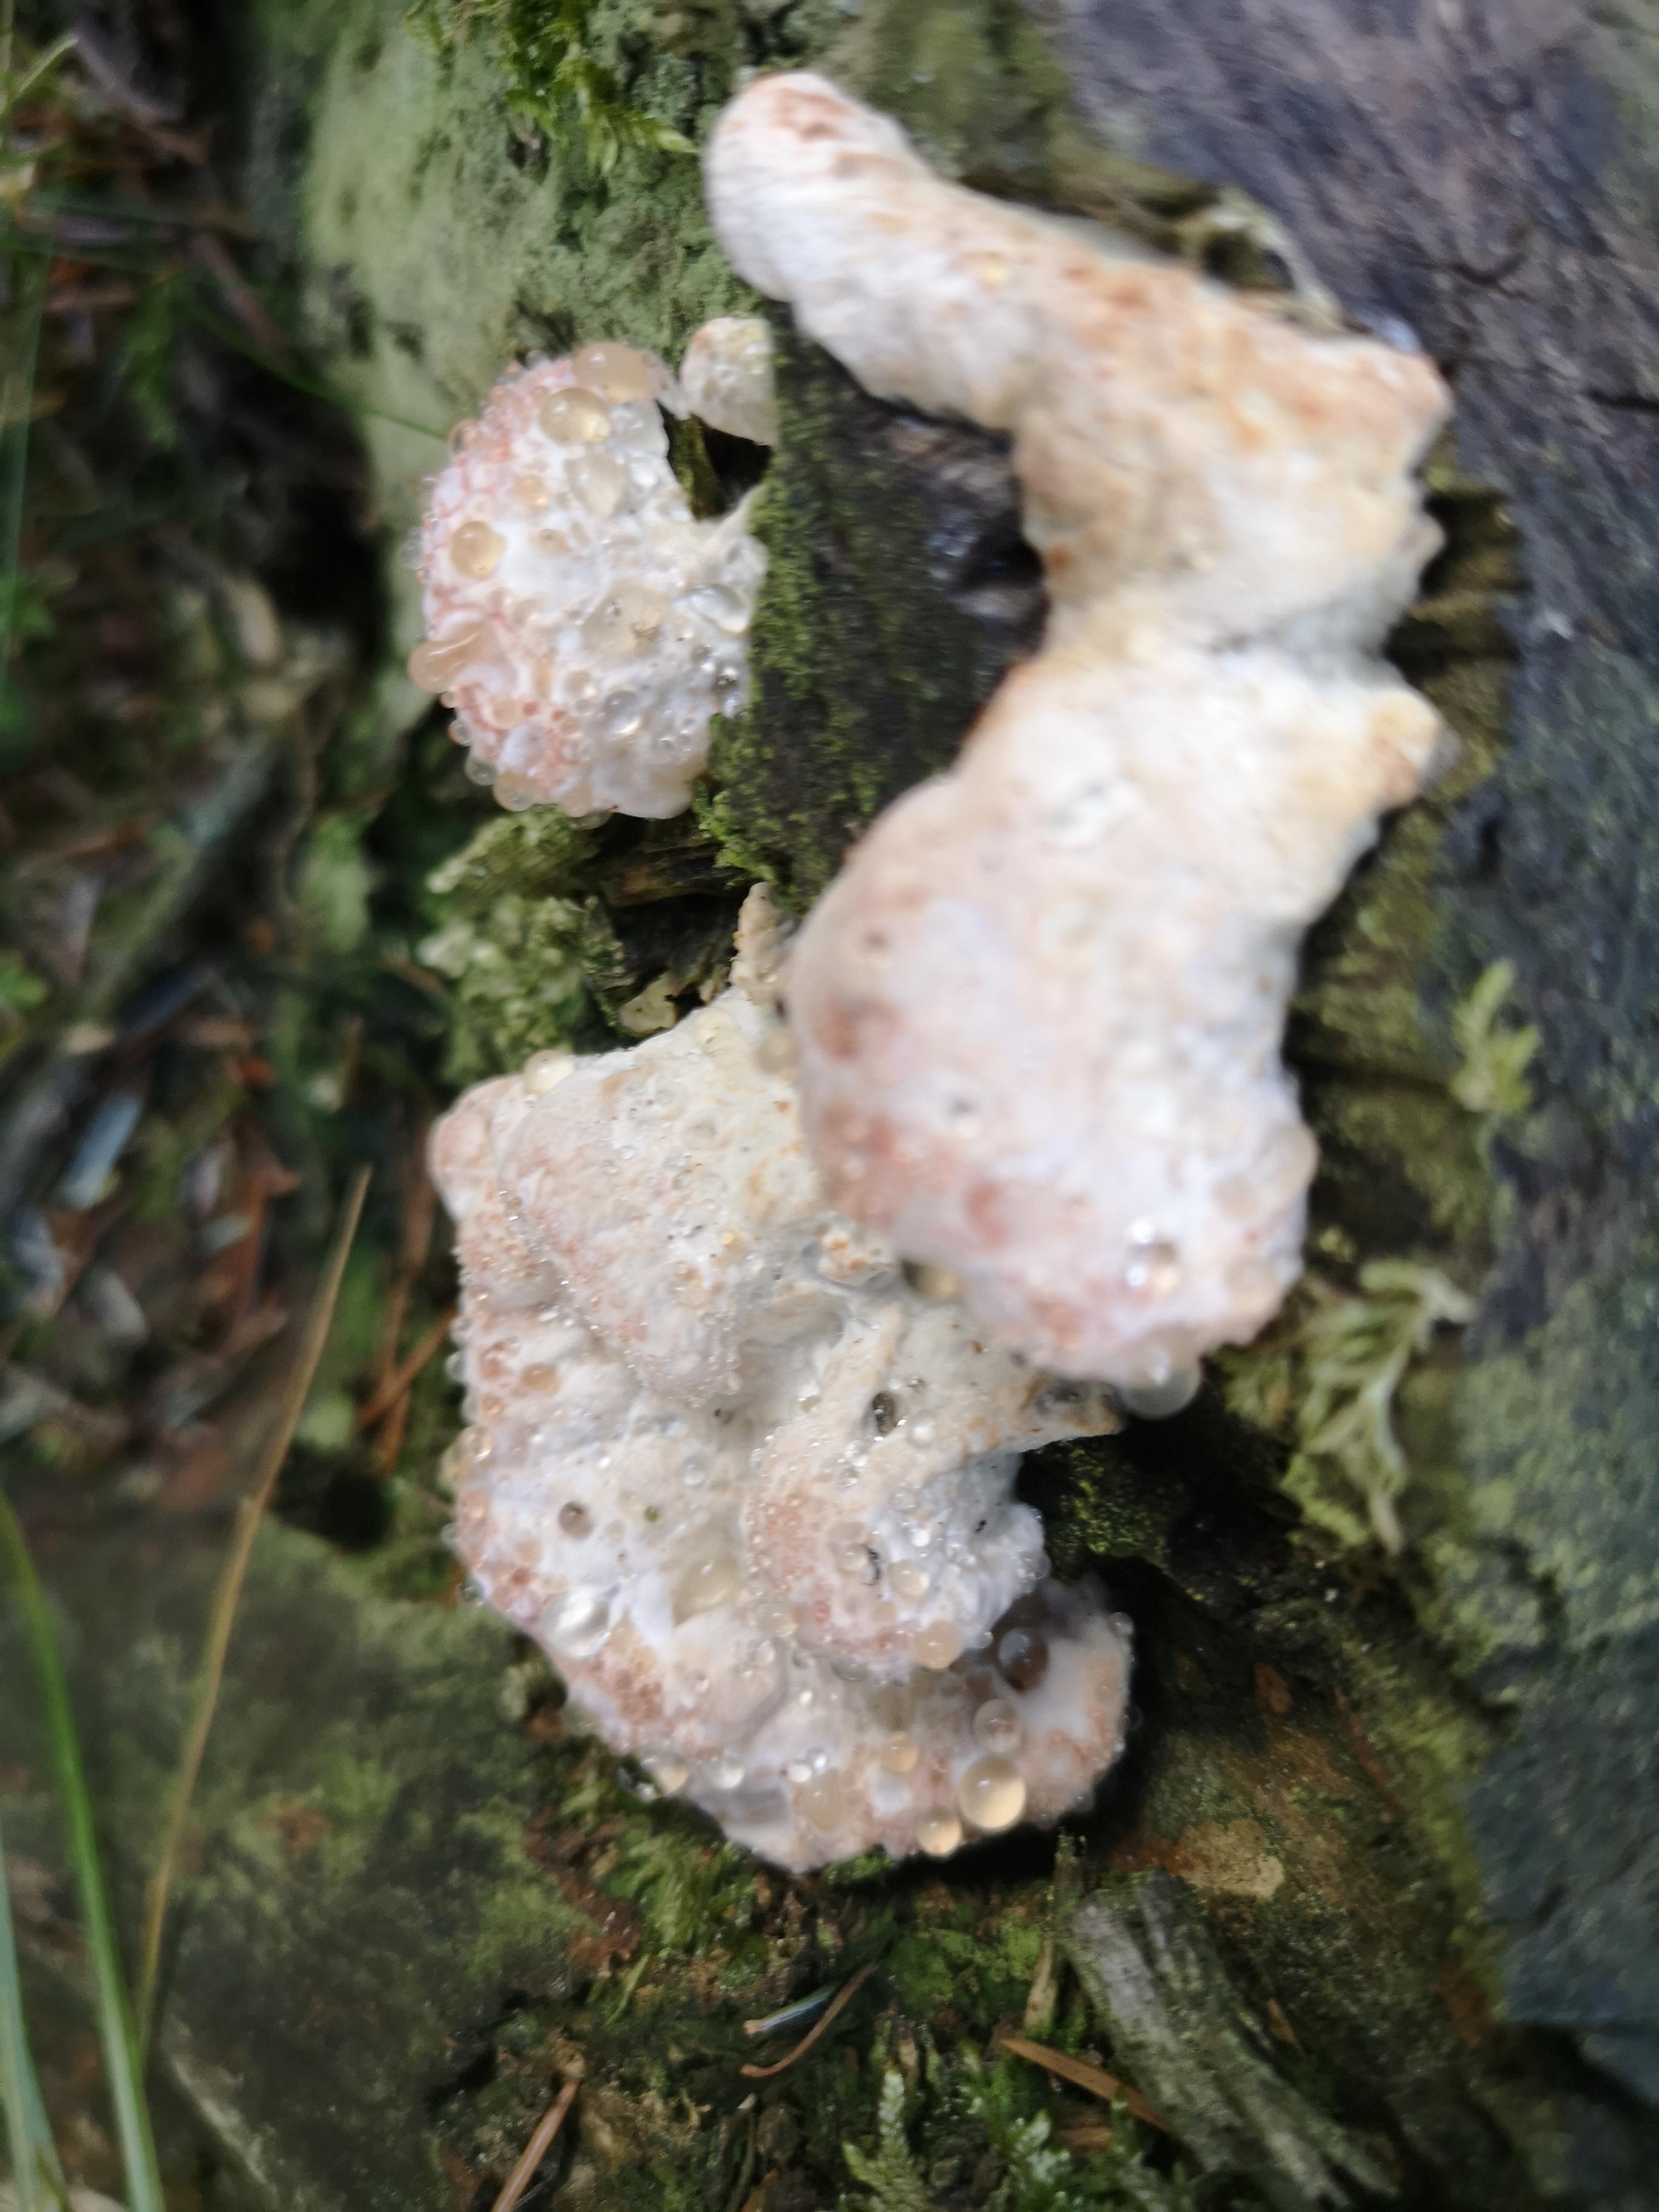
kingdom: Fungi
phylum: Basidiomycota
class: Agaricomycetes
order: Polyporales
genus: Calcipostia
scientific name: Calcipostia guttulata
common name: dråbe-kødporesvamp
